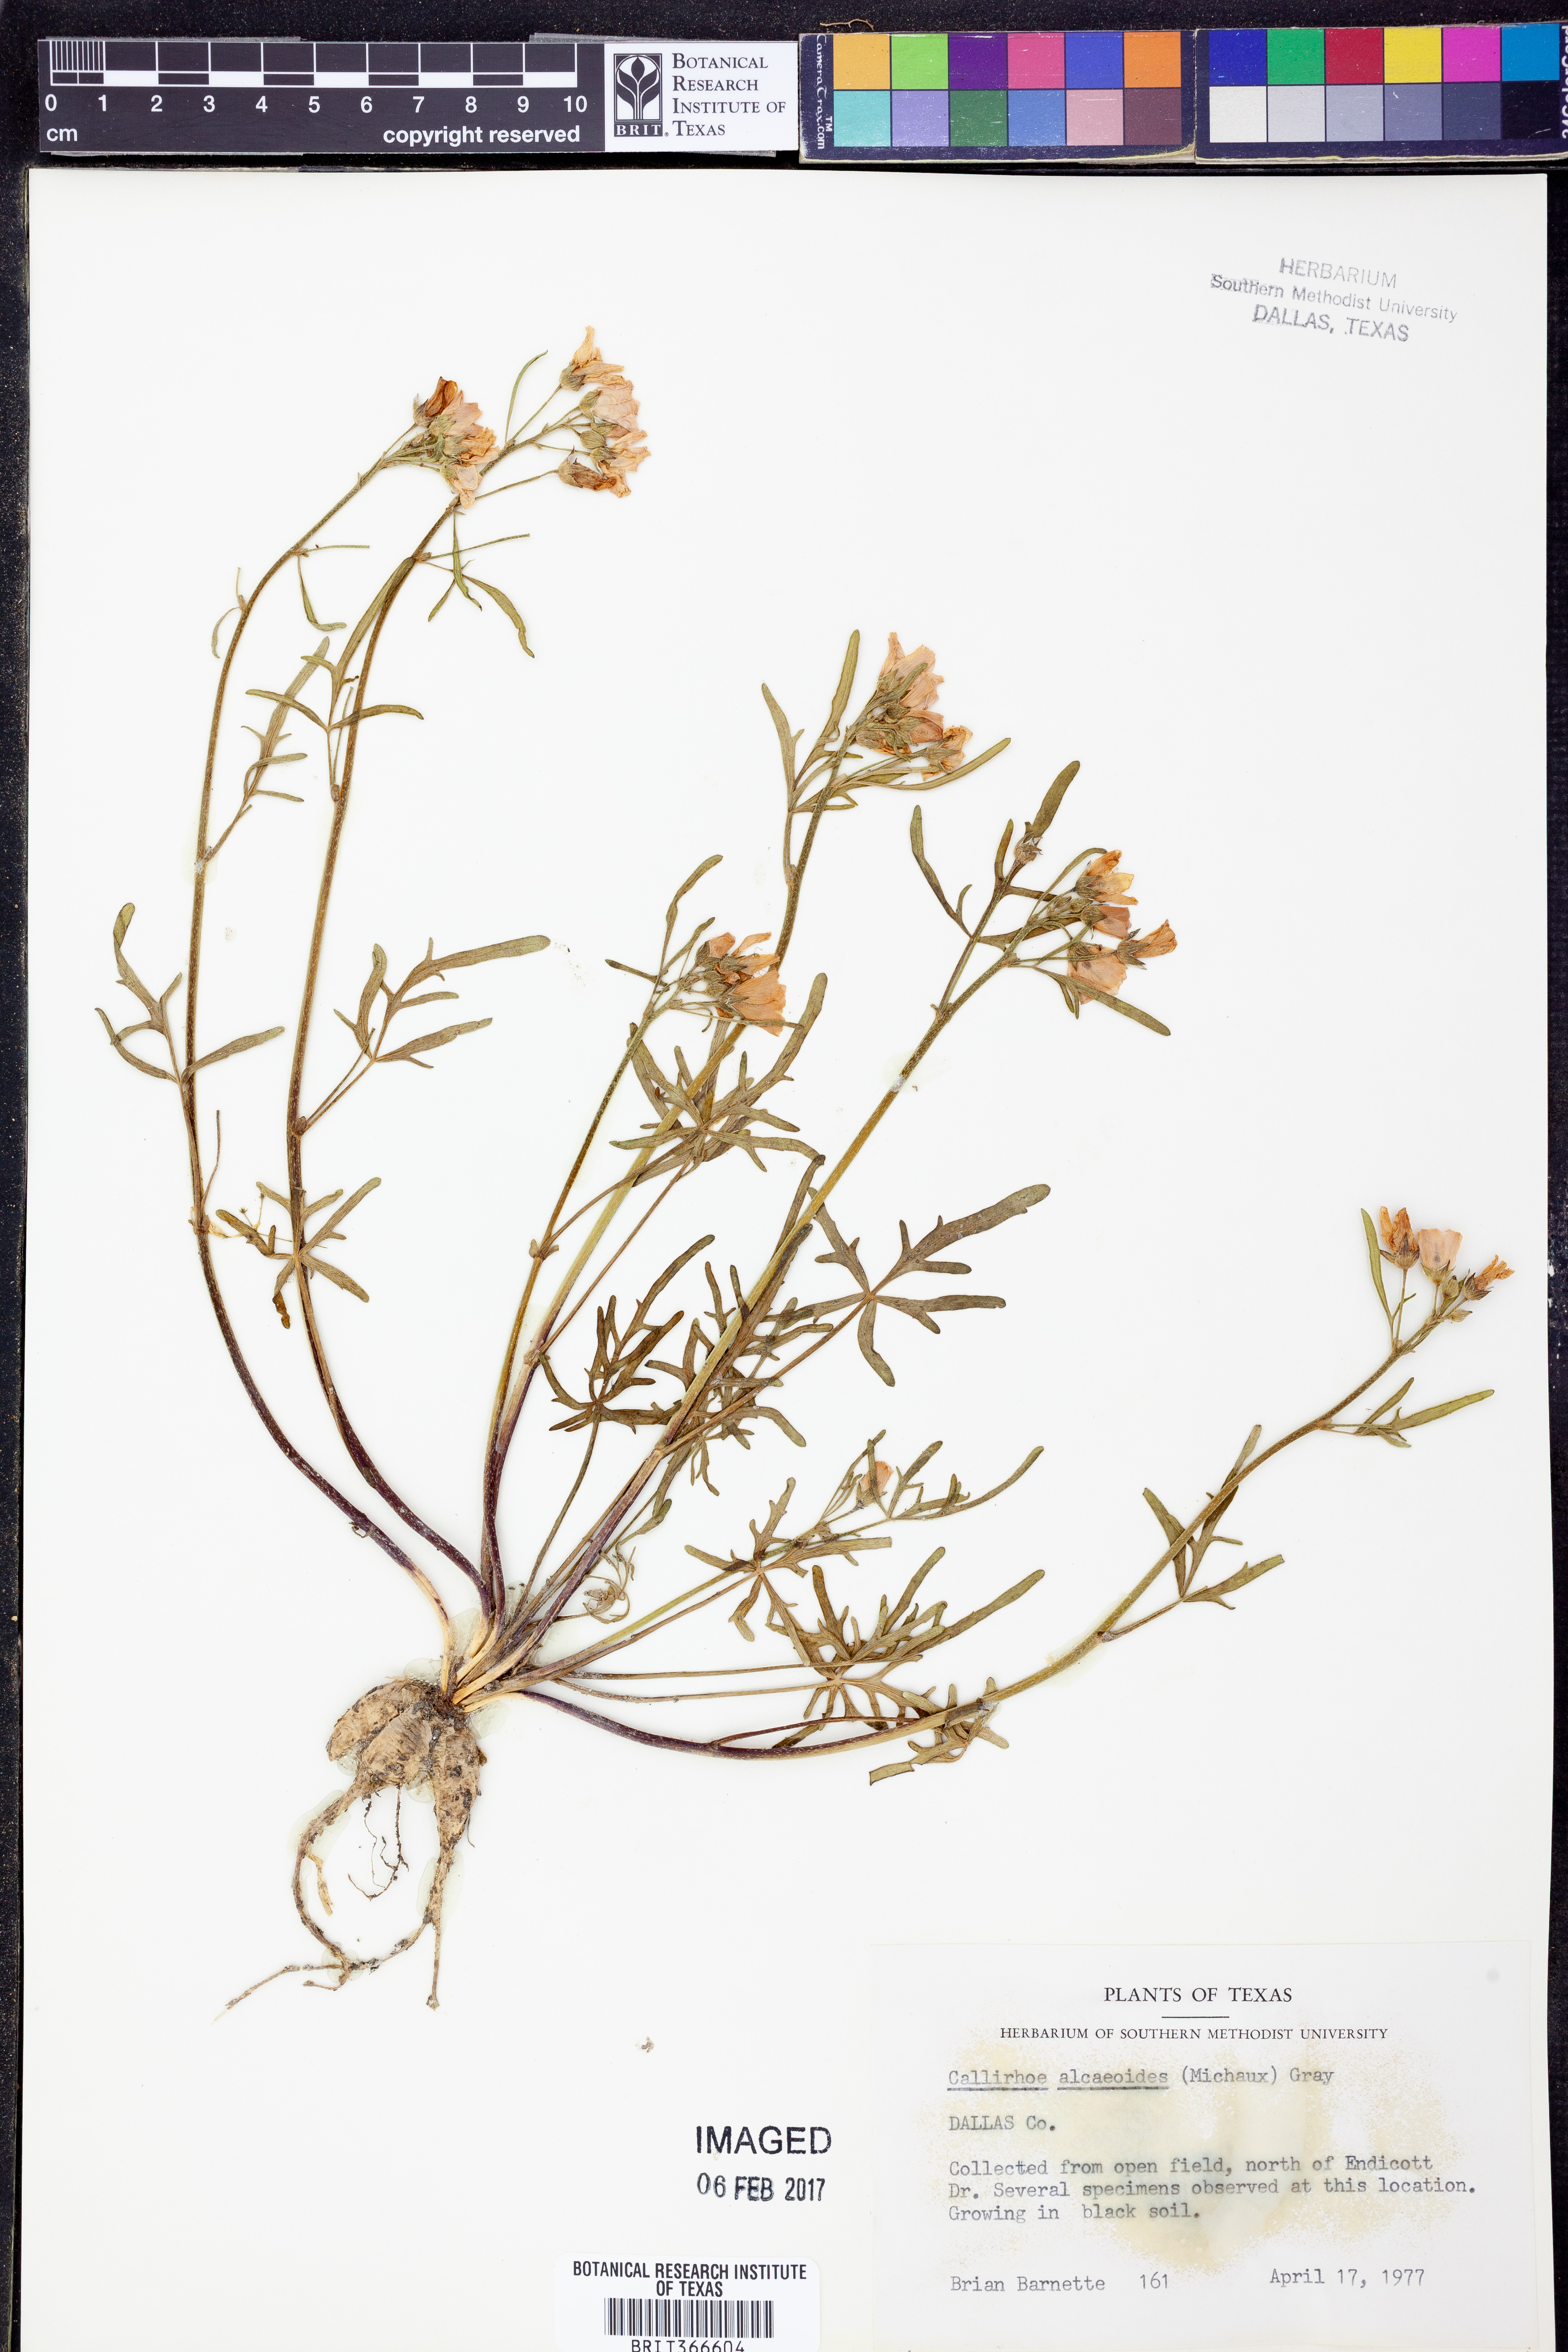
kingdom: Plantae
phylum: Tracheophyta
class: Magnoliopsida
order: Malvales
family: Malvaceae
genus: Callirhoe
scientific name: Callirhoe alcaeoides
